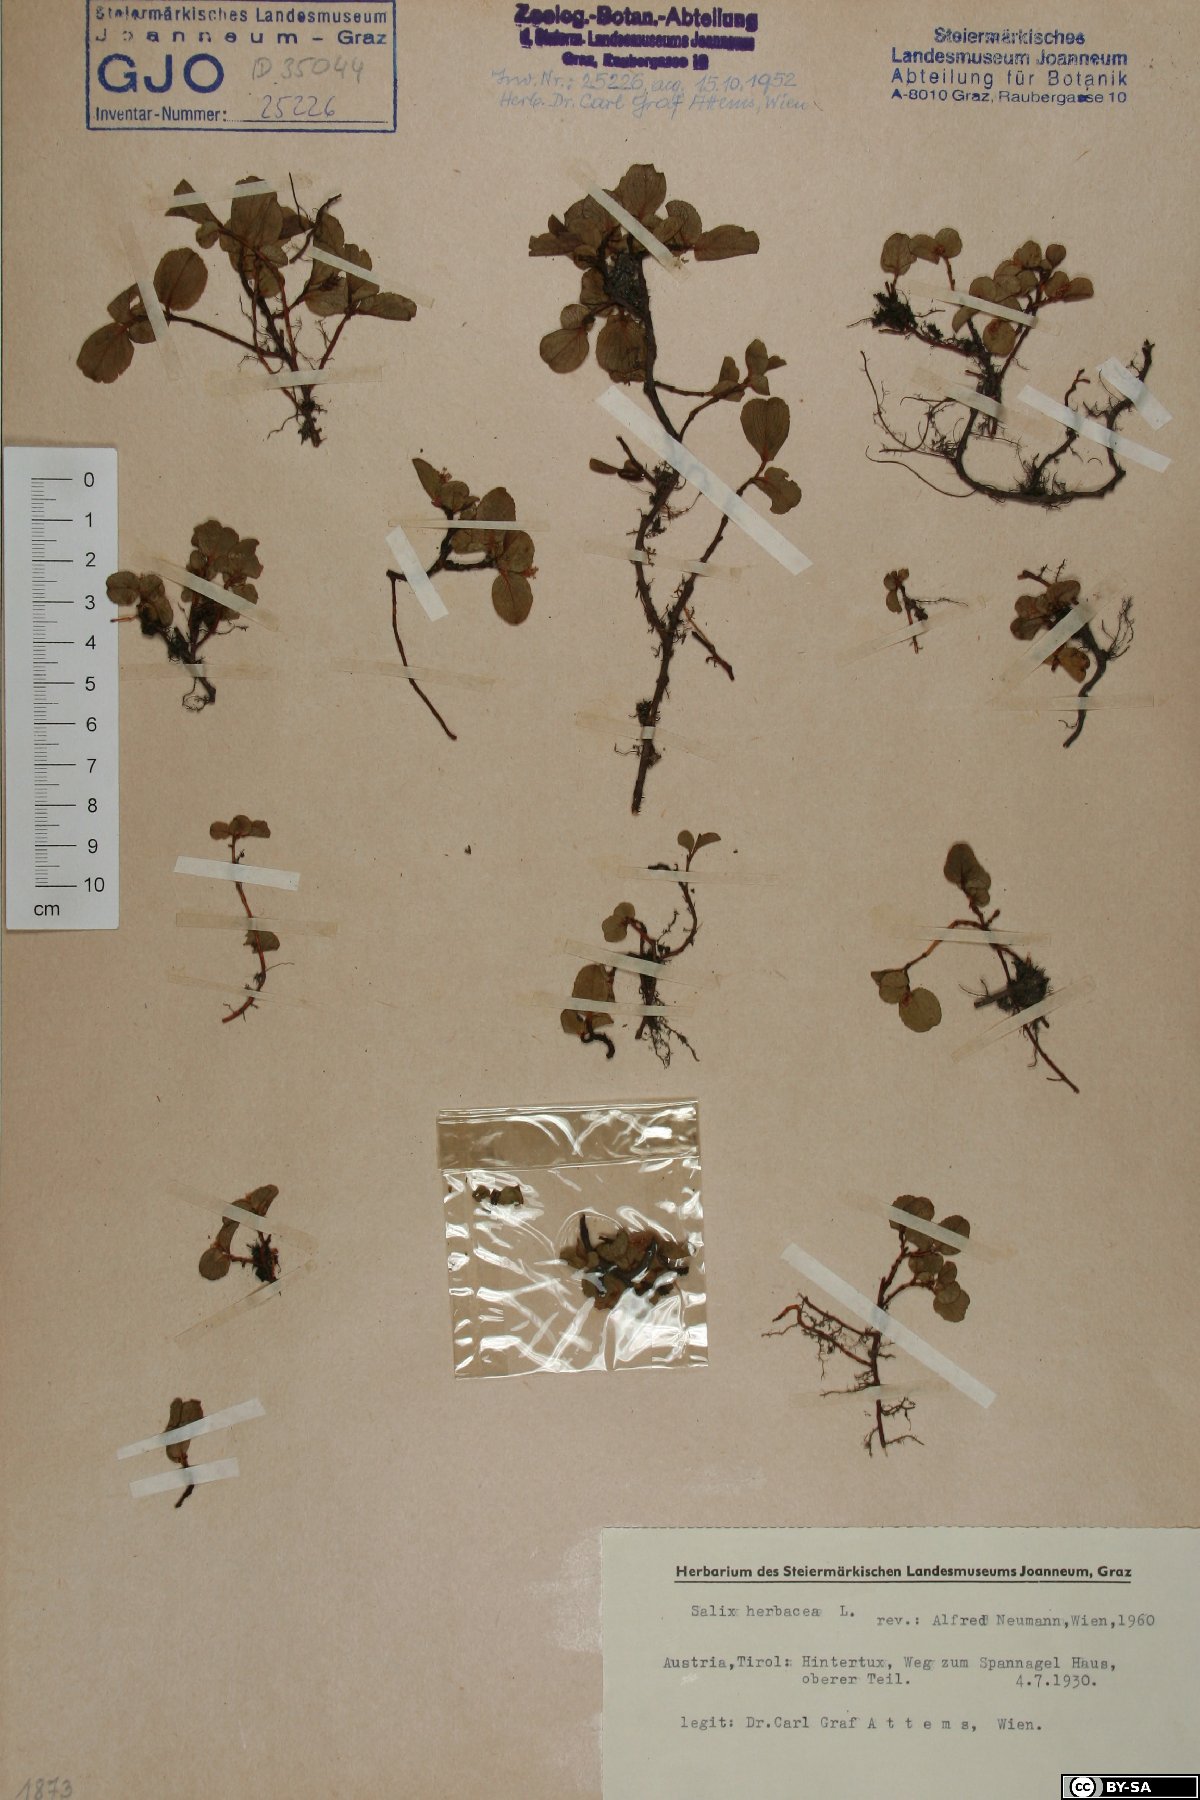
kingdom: Plantae
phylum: Tracheophyta
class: Magnoliopsida
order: Malpighiales
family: Salicaceae
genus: Salix
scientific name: Salix herbacea
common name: Dwarf willow
